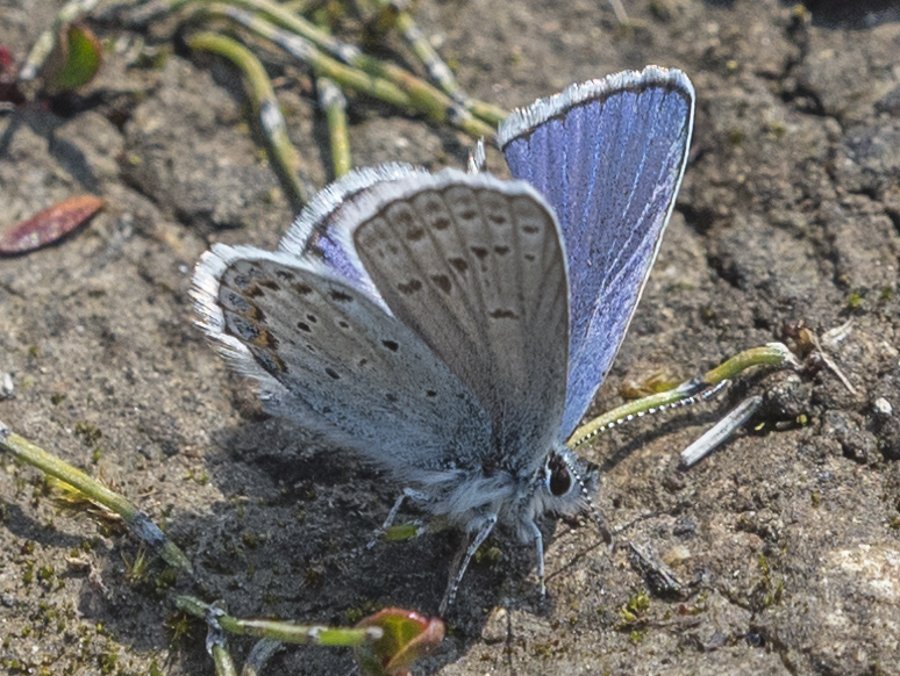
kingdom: Animalia
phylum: Arthropoda
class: Insecta
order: Lepidoptera
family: Lycaenidae
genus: Lycaeides
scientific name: Lycaeides idas
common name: Northern Blue
